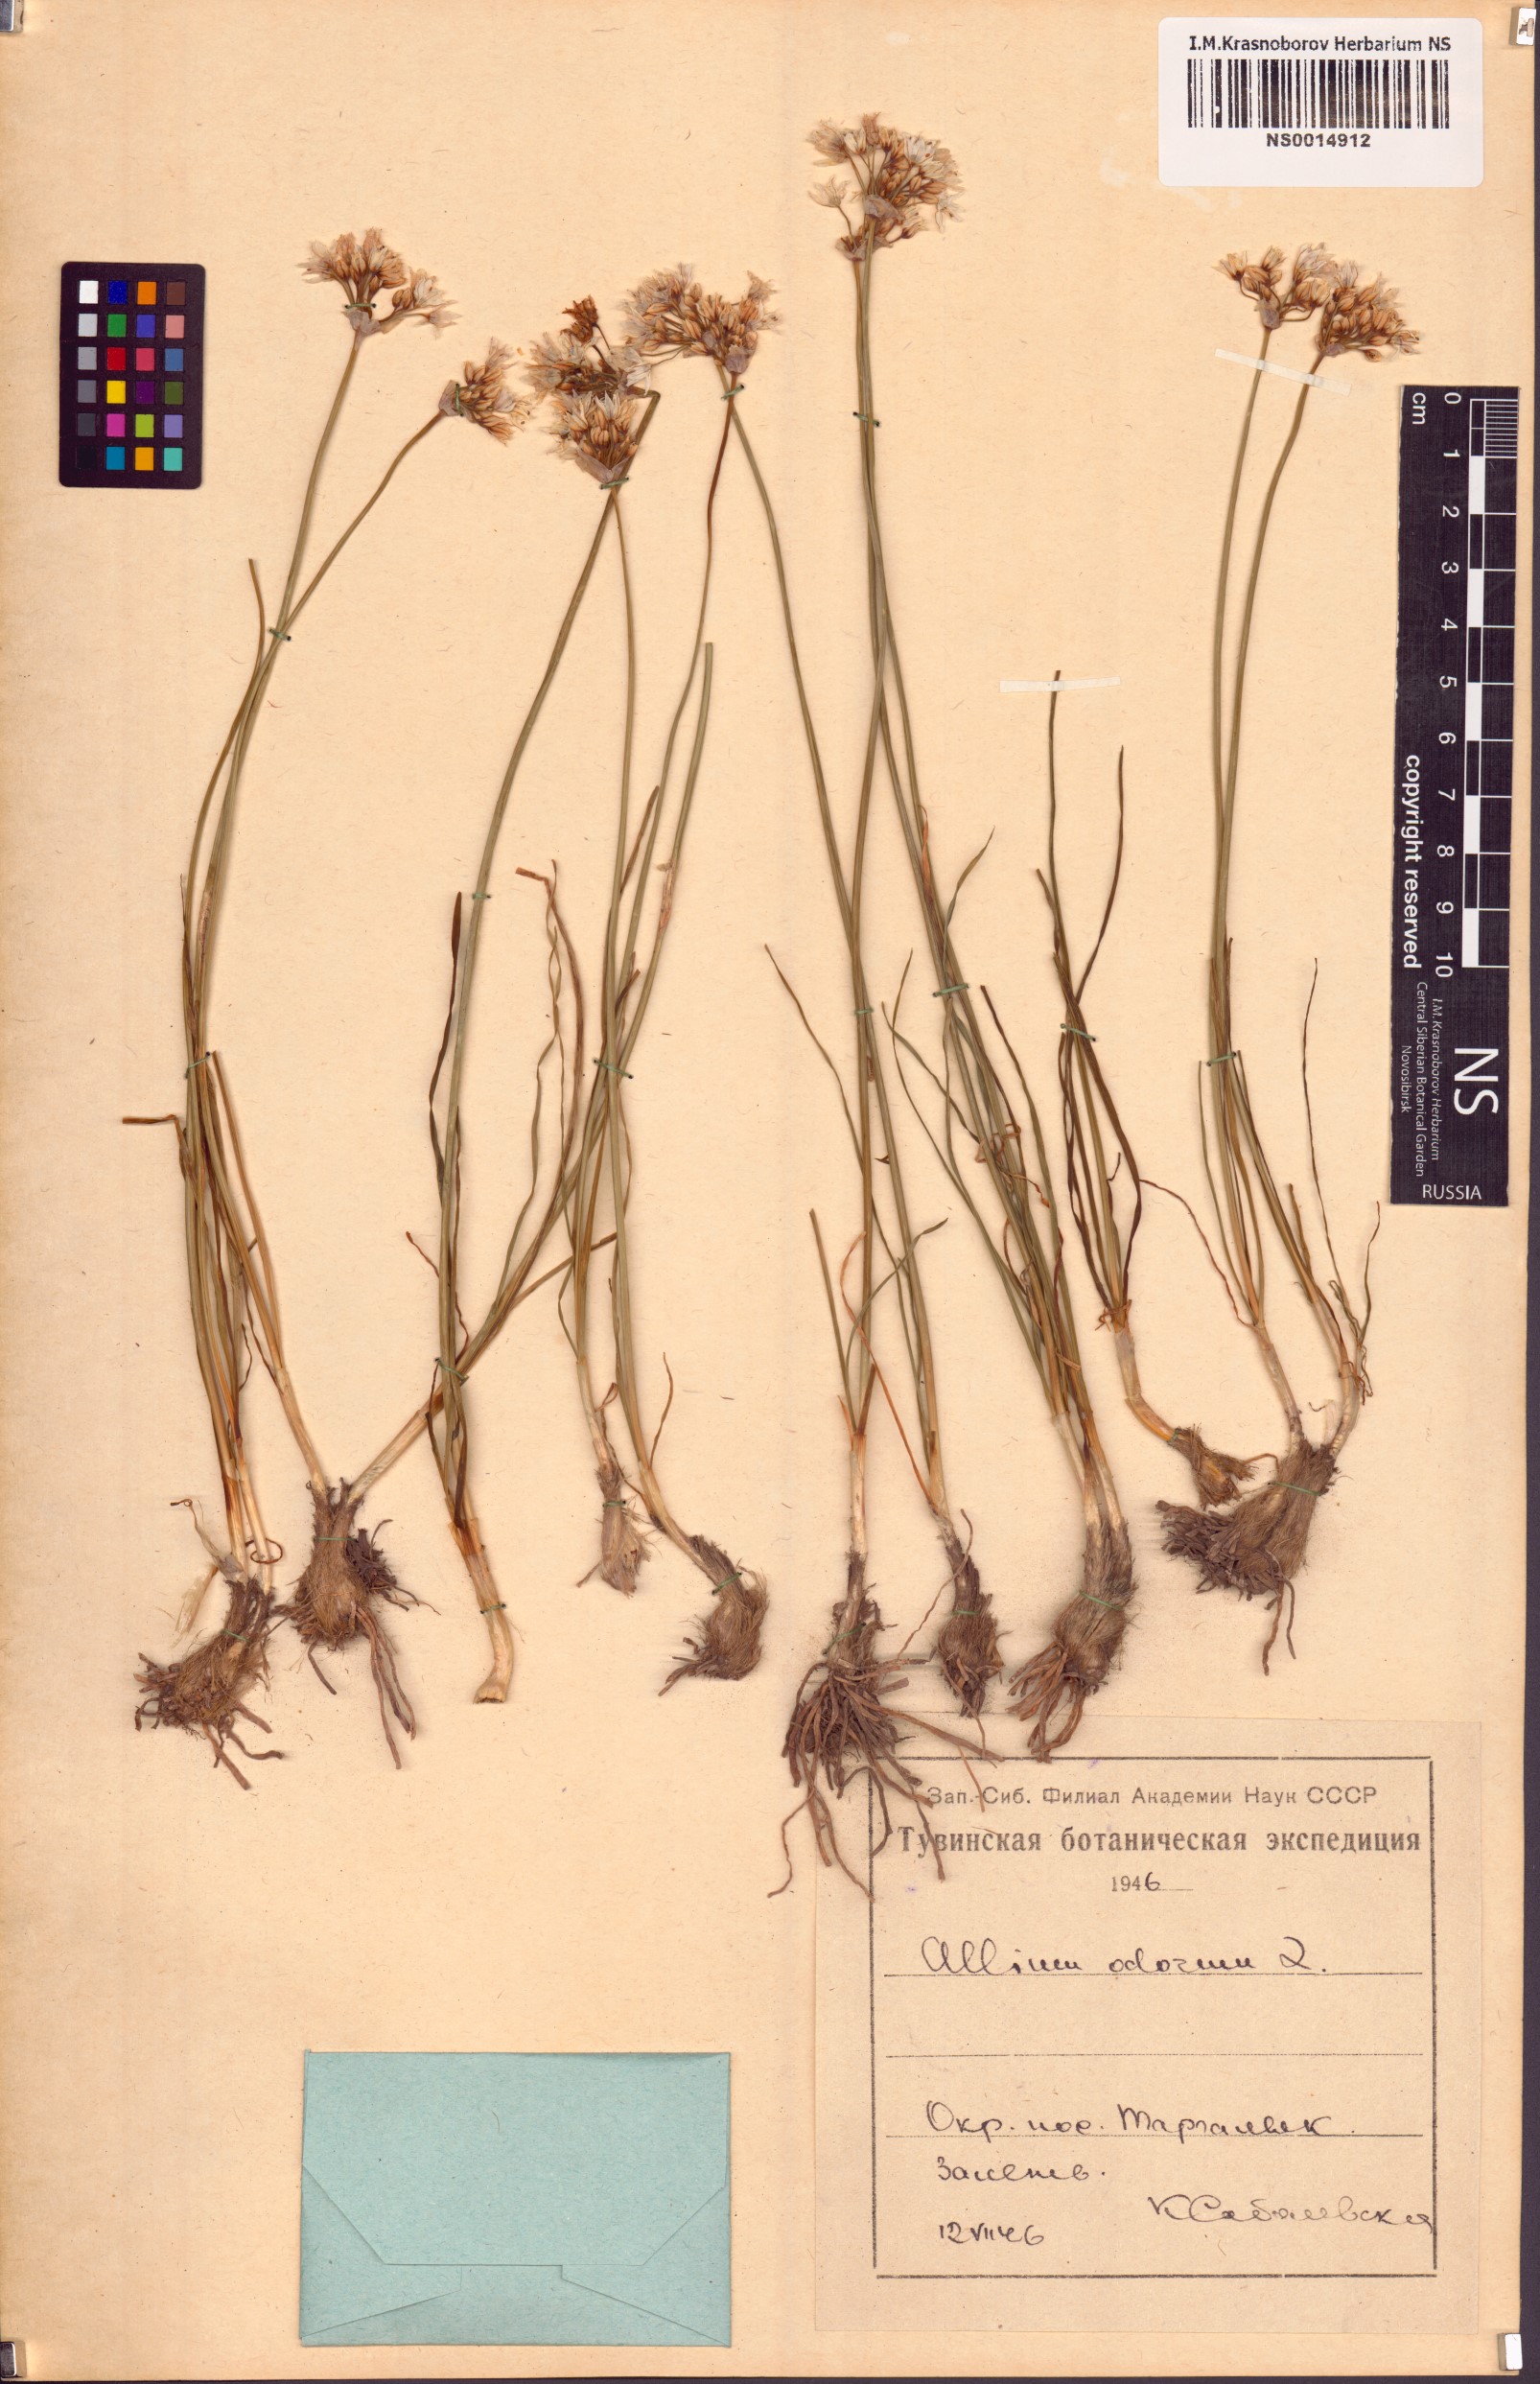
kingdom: Plantae
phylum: Tracheophyta
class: Liliopsida
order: Asparagales
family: Amaryllidaceae
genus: Allium
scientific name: Allium ramosum
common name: Fragrant garlic
